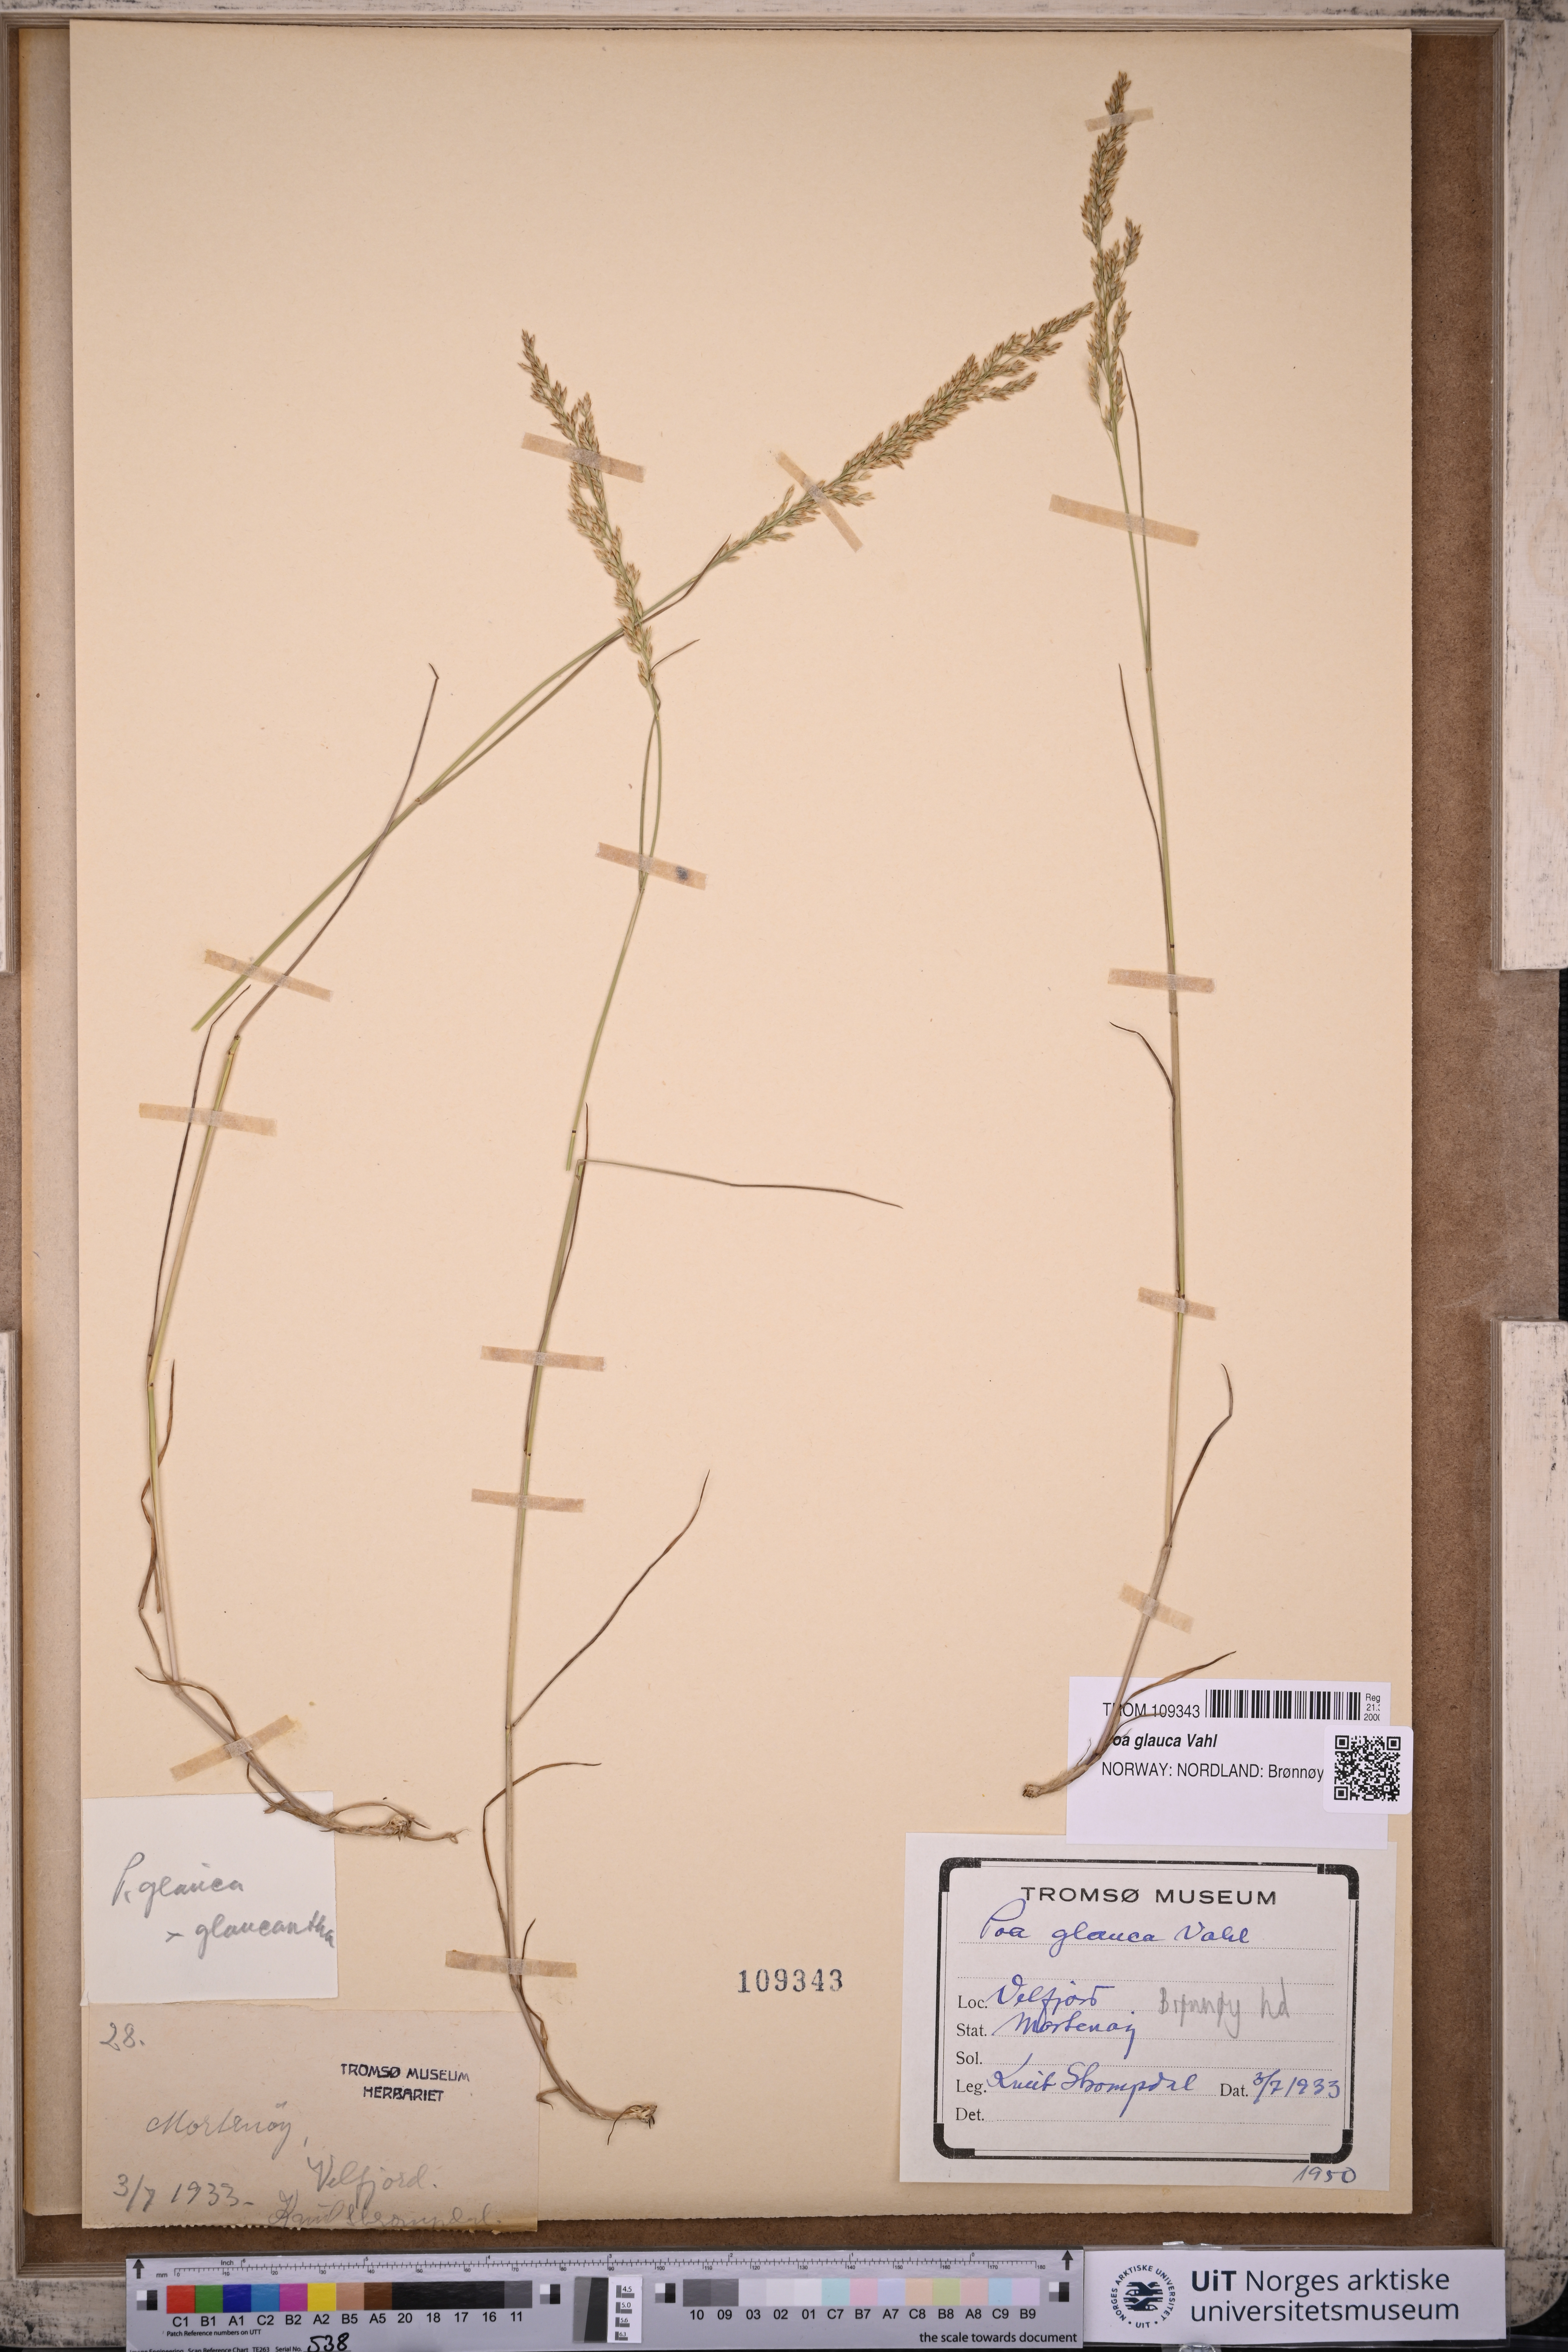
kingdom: Plantae
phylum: Tracheophyta
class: Liliopsida
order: Poales
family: Poaceae
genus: Poa
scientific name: Poa glauca
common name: Glaucous bluegrass
